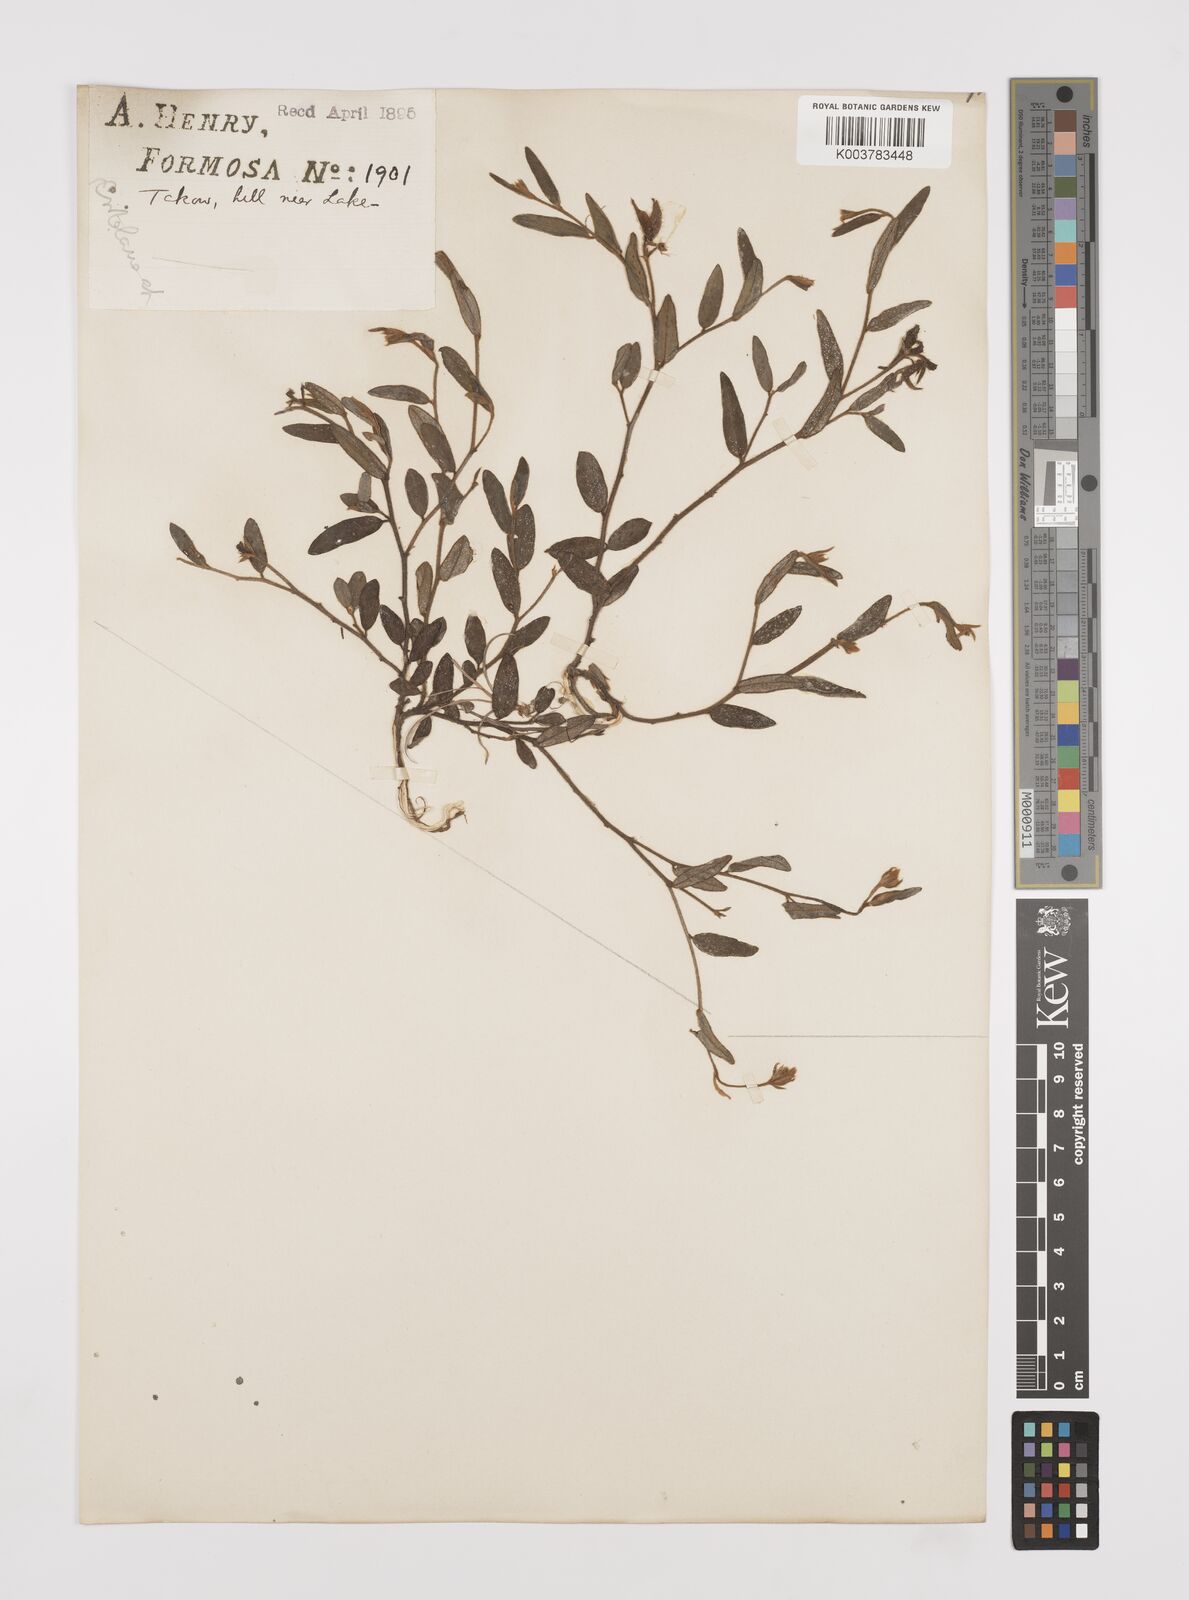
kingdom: Plantae
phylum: Tracheophyta
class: Magnoliopsida
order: Fabales
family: Fabaceae
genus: Crotalaria
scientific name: Crotalaria chinensis
